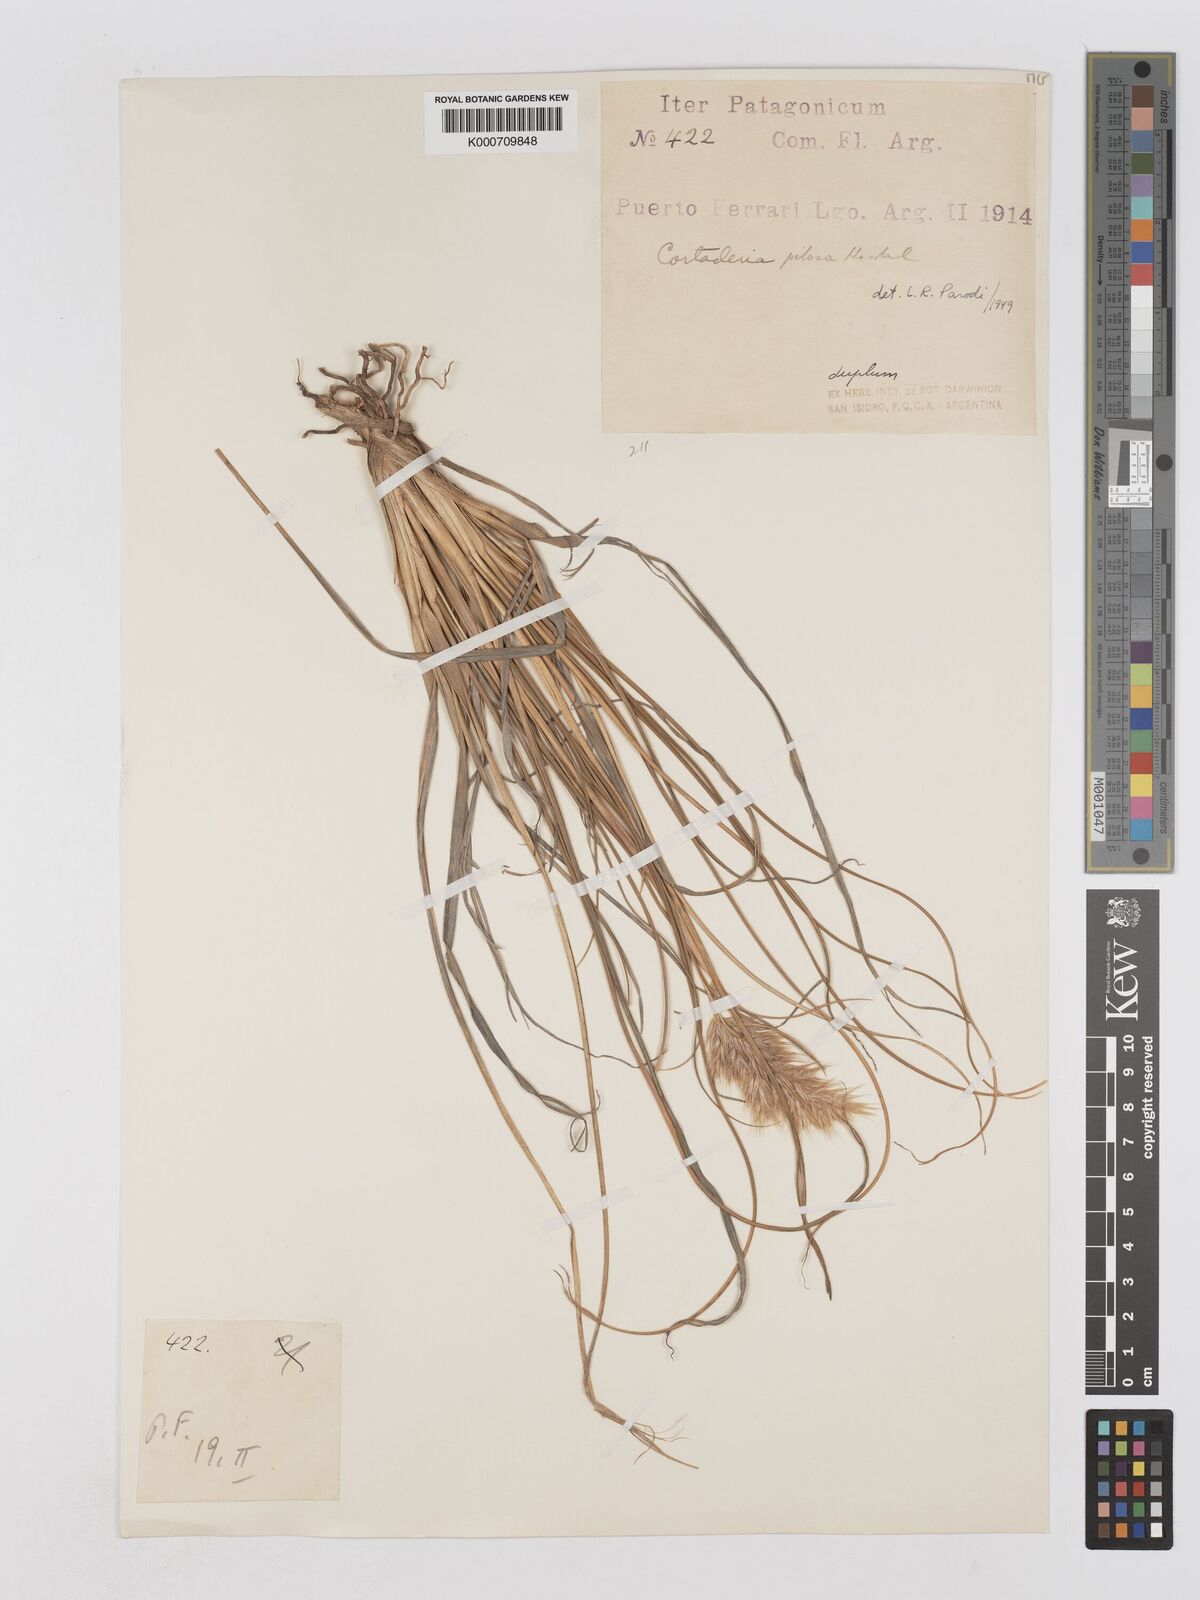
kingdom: Plantae
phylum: Tracheophyta
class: Liliopsida
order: Poales
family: Poaceae
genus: Cortaderia
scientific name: Cortaderia
